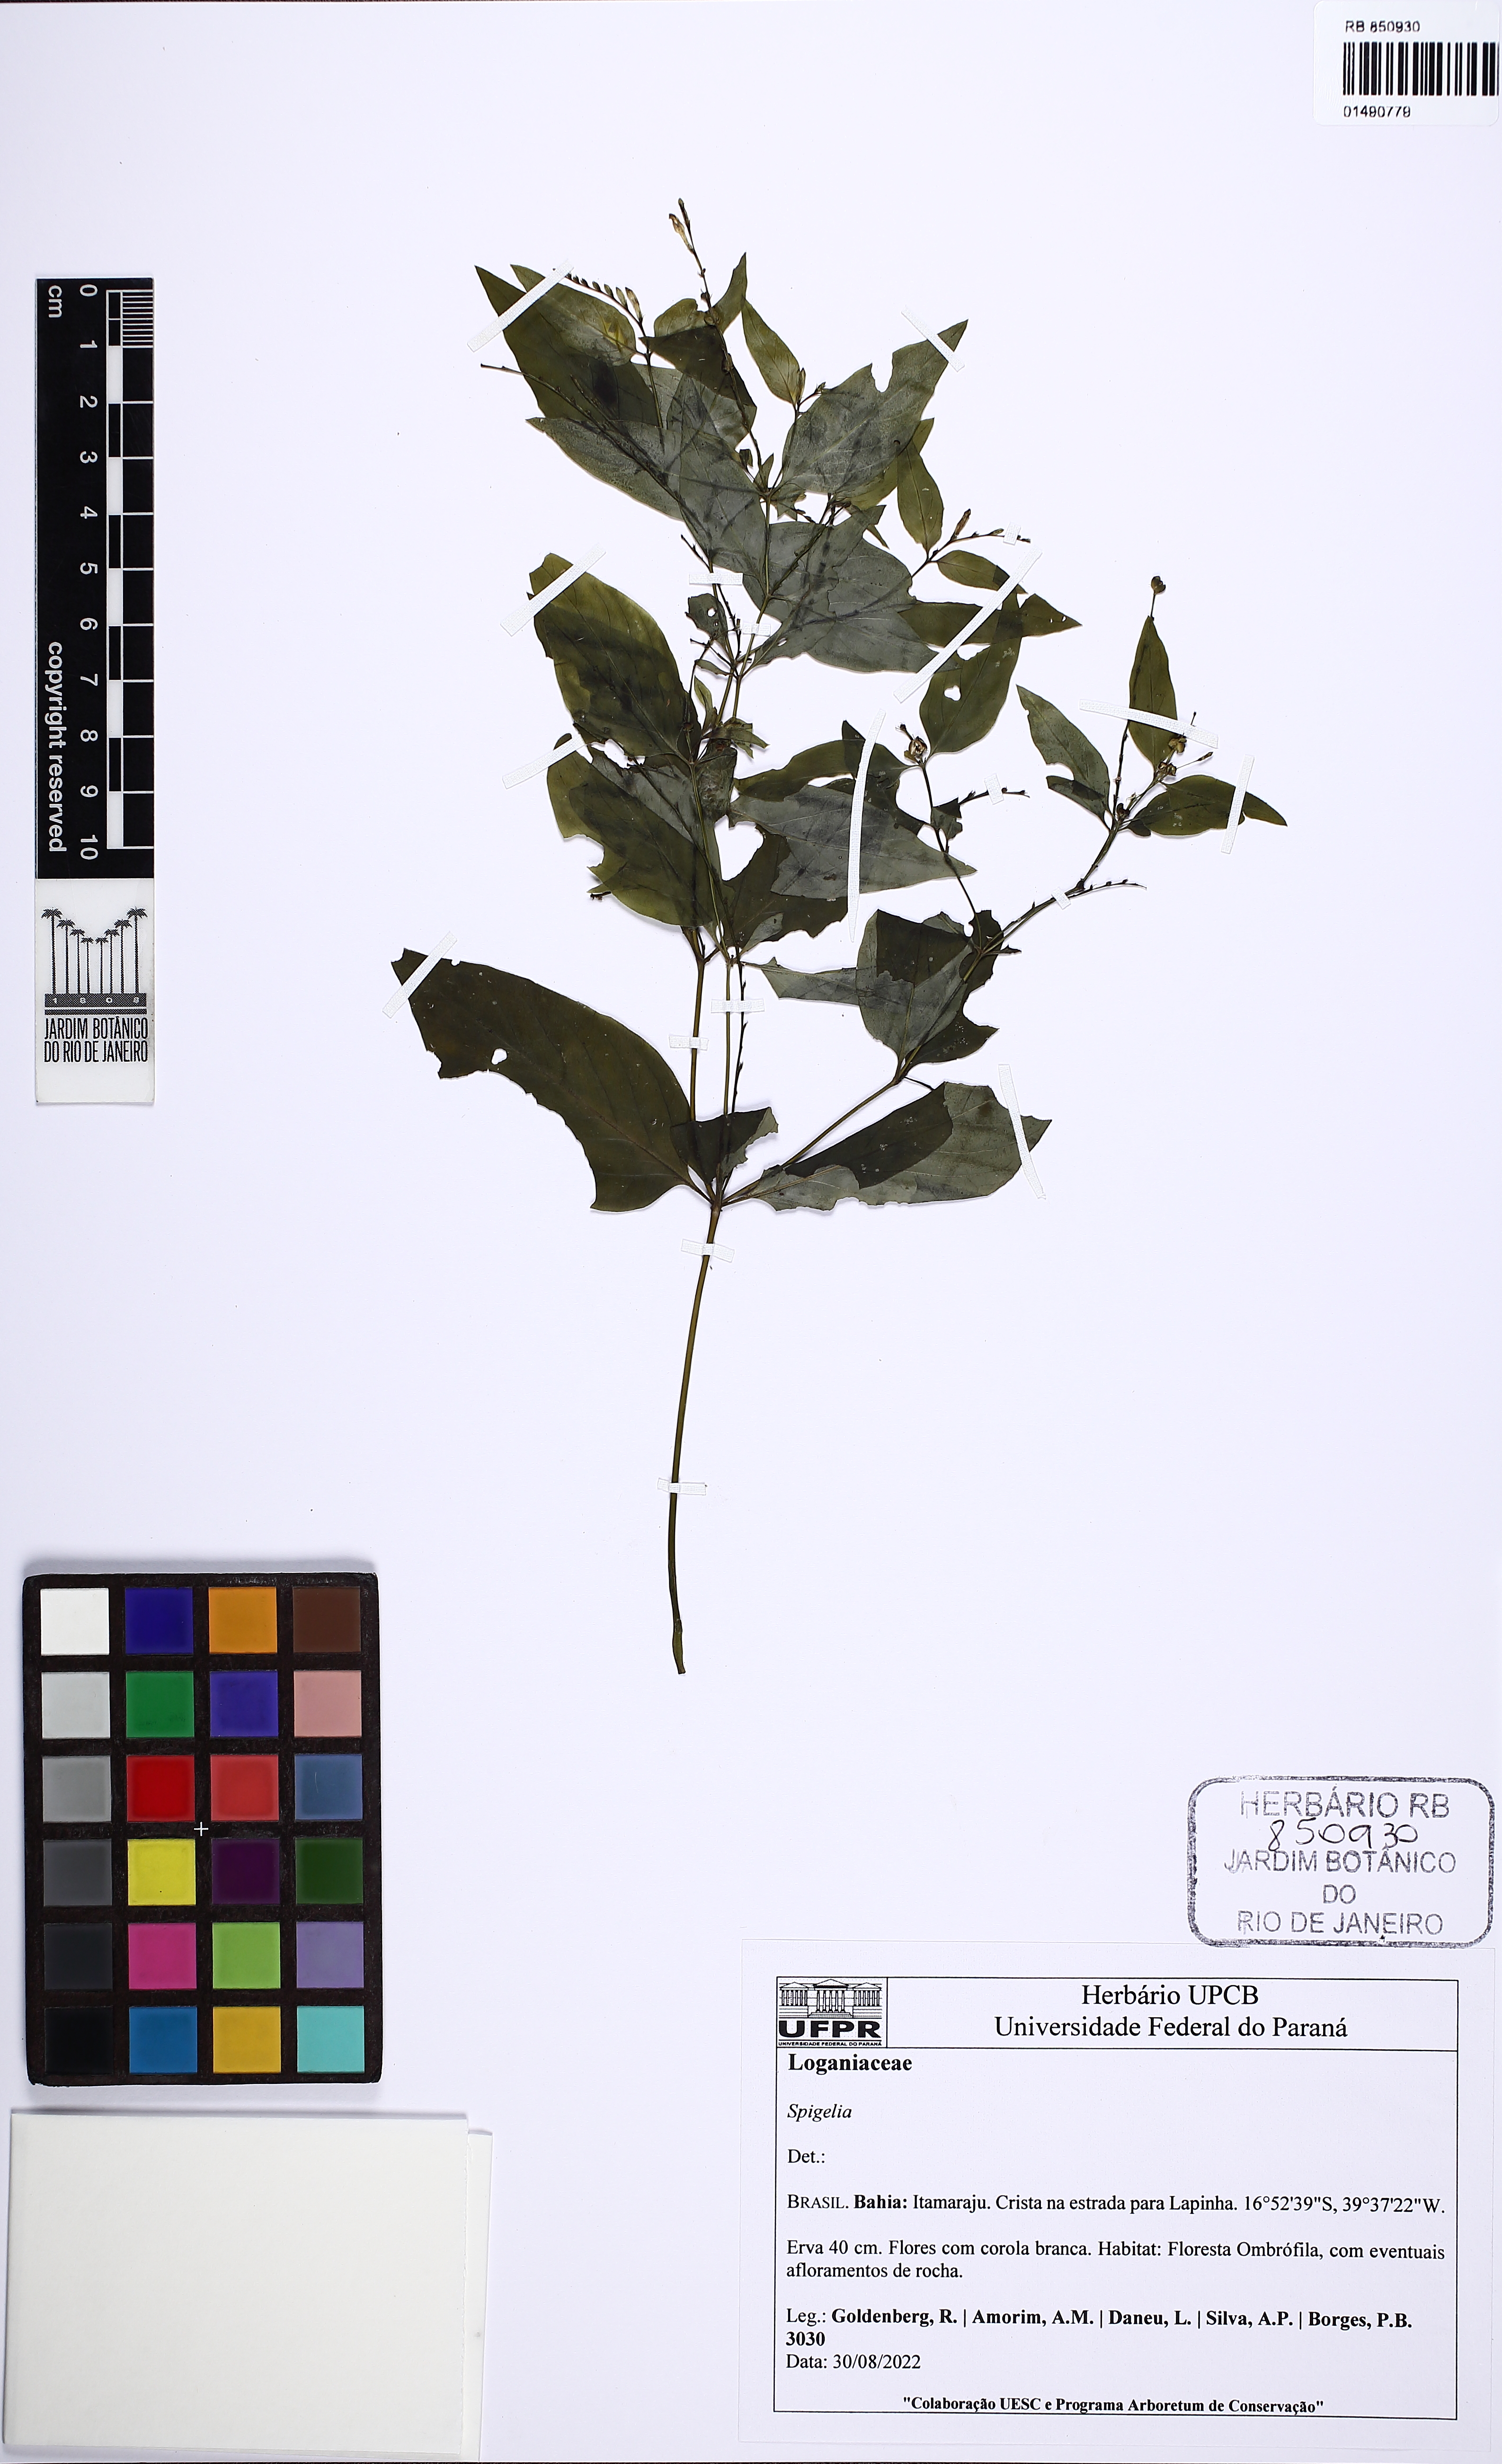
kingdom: Plantae
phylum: Tracheophyta
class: Magnoliopsida
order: Gentianales
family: Loganiaceae
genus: Spigelia
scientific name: Spigelia
